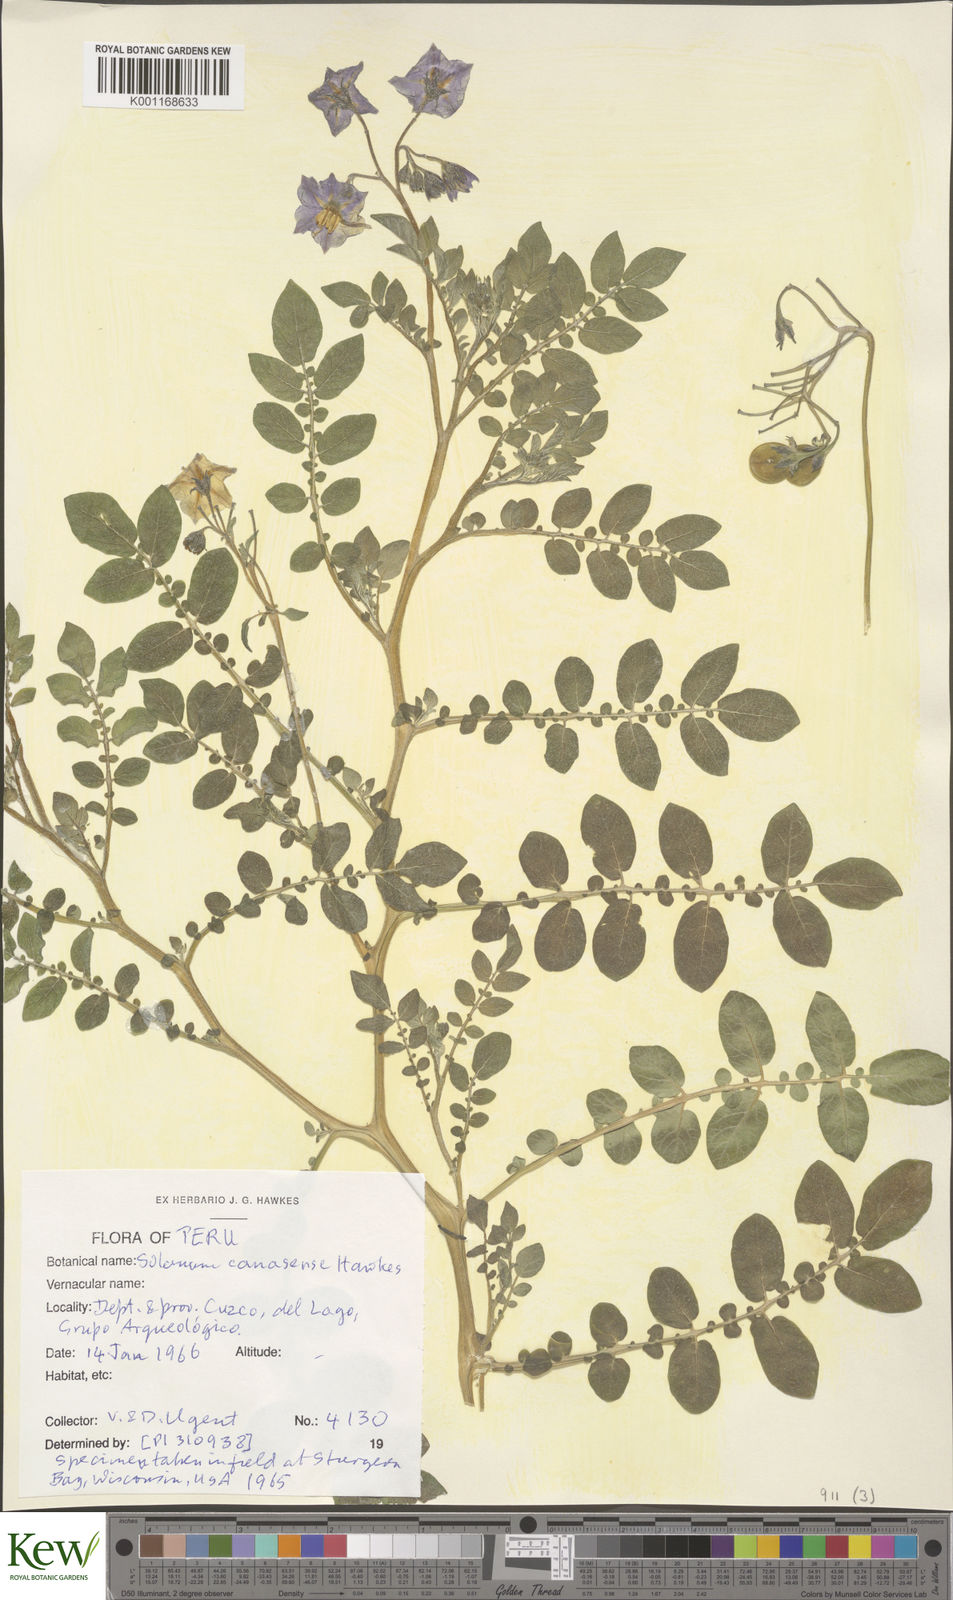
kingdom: Plantae
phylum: Tracheophyta
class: Magnoliopsida
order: Solanales
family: Solanaceae
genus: Solanum
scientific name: Solanum candolleanum
